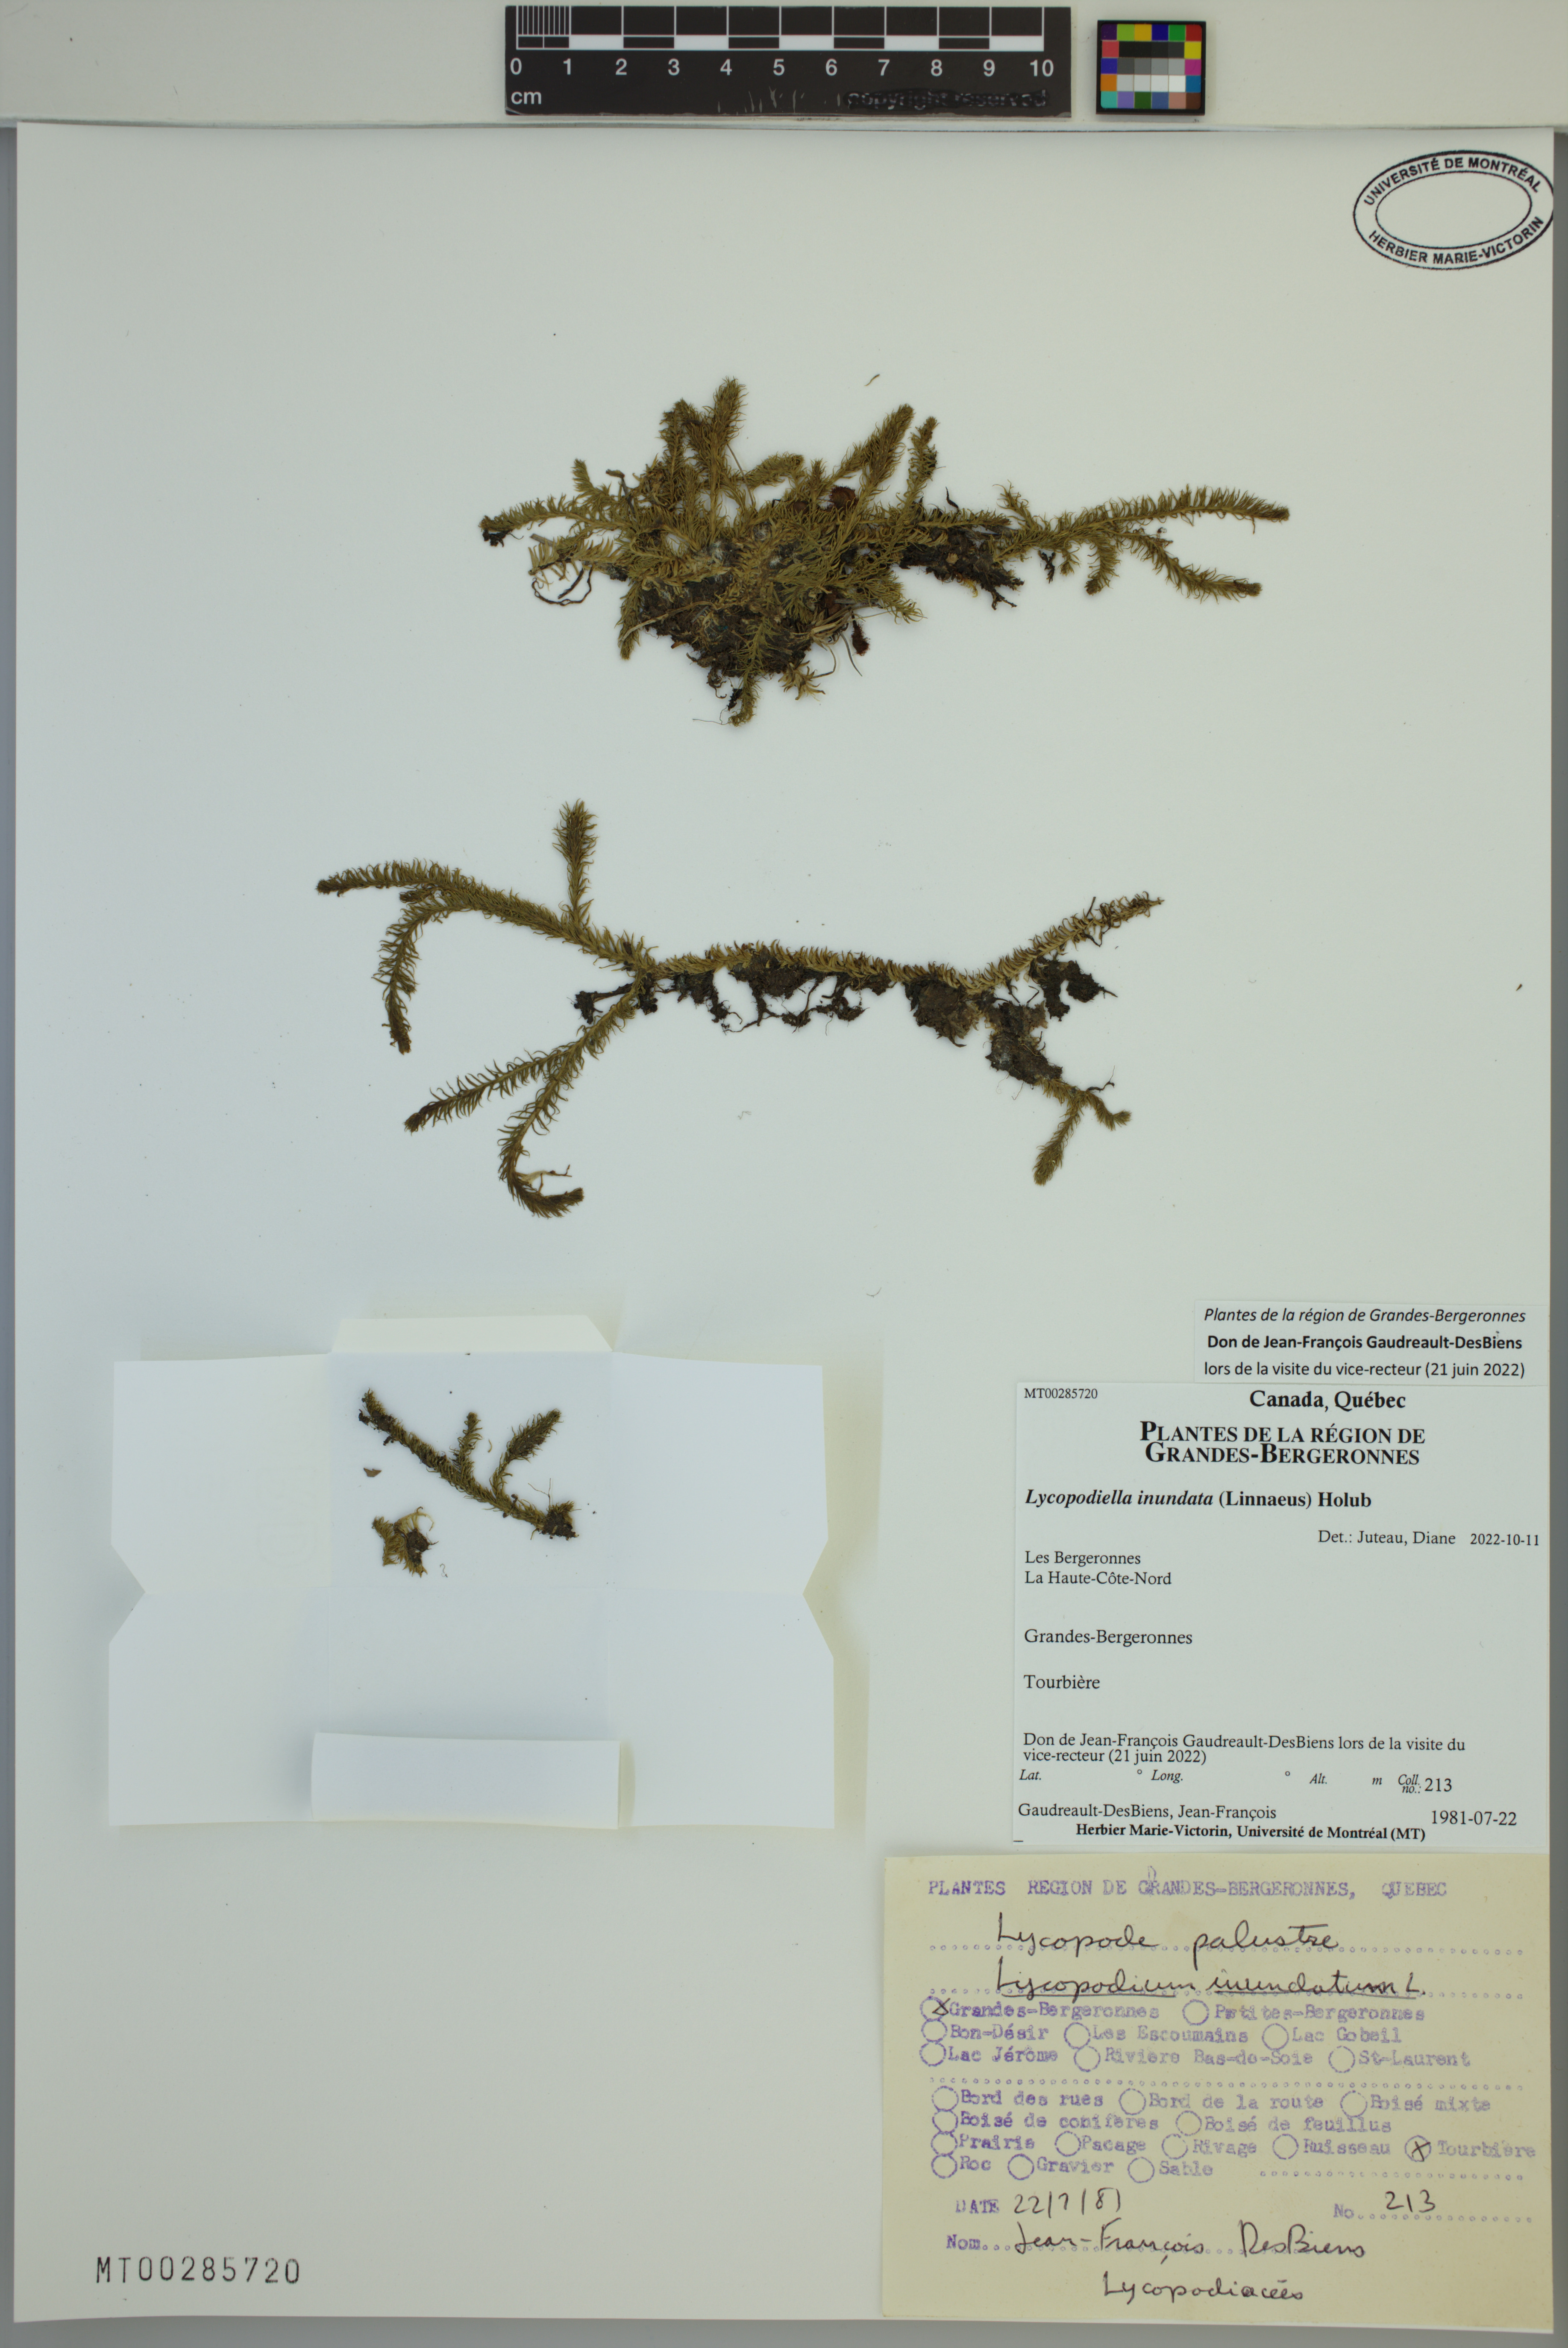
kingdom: Plantae
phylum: Tracheophyta
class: Lycopodiopsida
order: Lycopodiales
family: Lycopodiaceae
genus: Lycopodiella
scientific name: Lycopodiella inundata
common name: Marsh clubmoss
